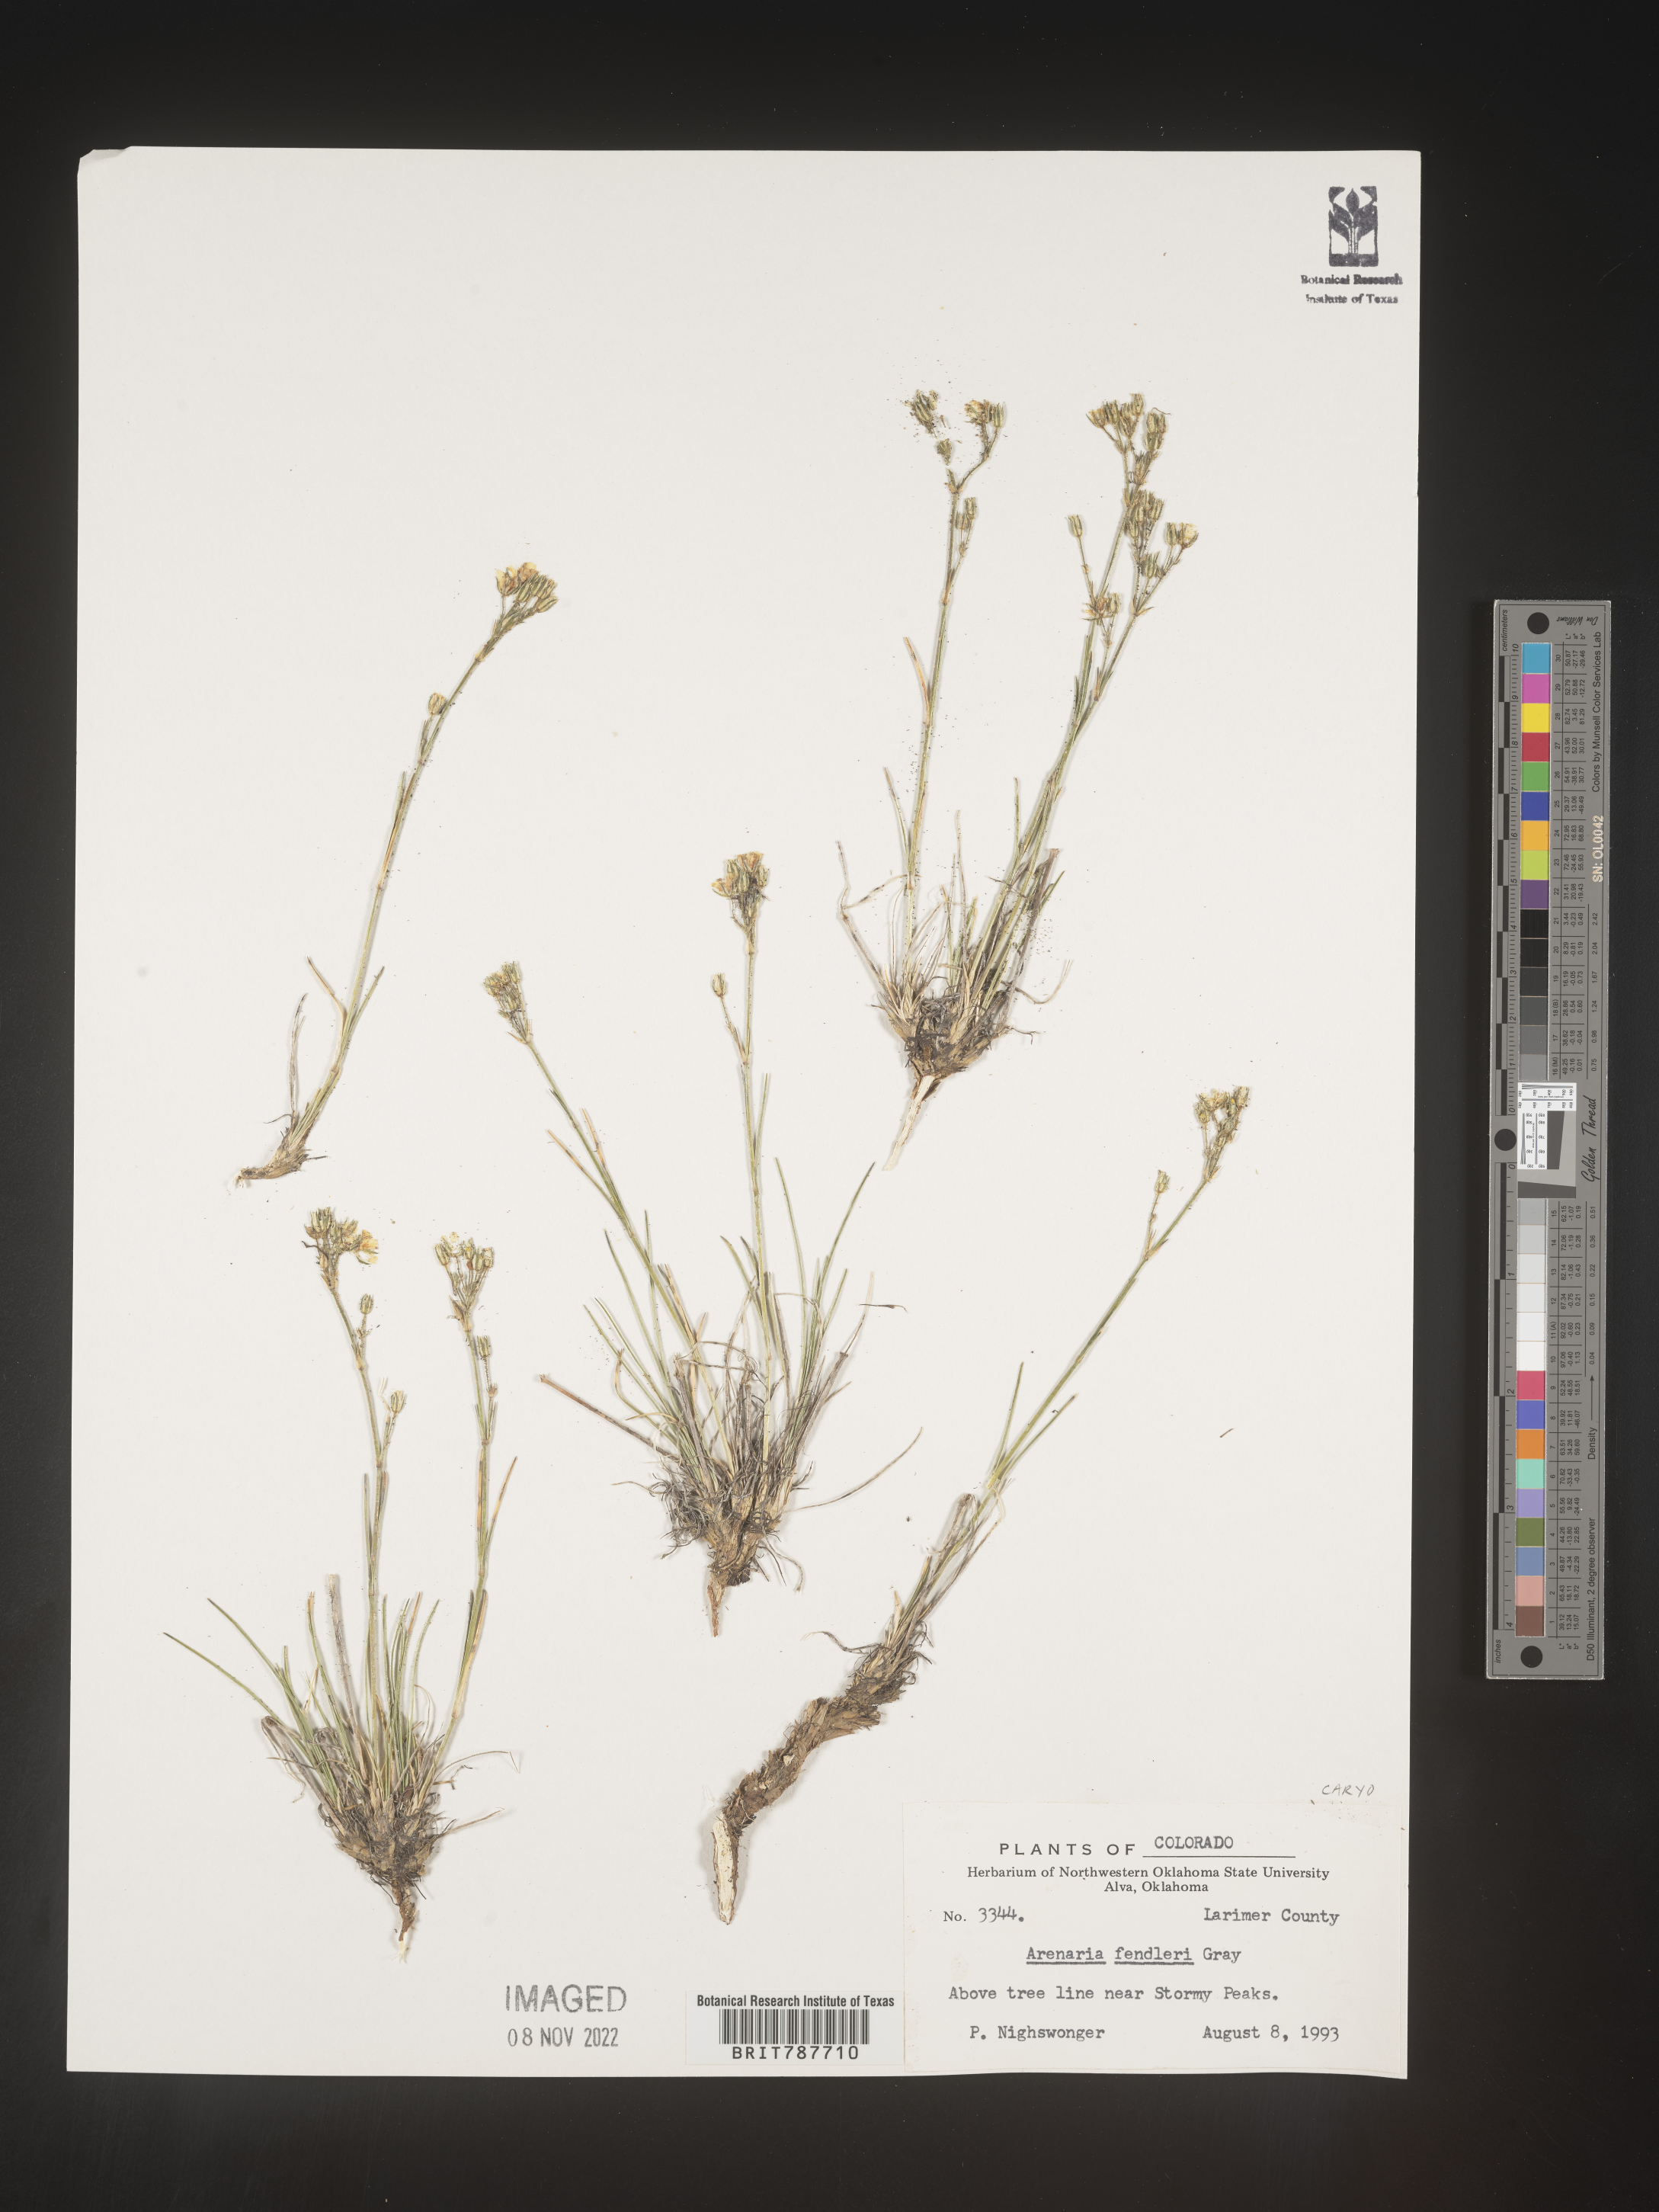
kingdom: Plantae
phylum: Tracheophyta
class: Magnoliopsida
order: Caryophyllales
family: Caryophyllaceae
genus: Arenaria
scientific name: Arenaria
